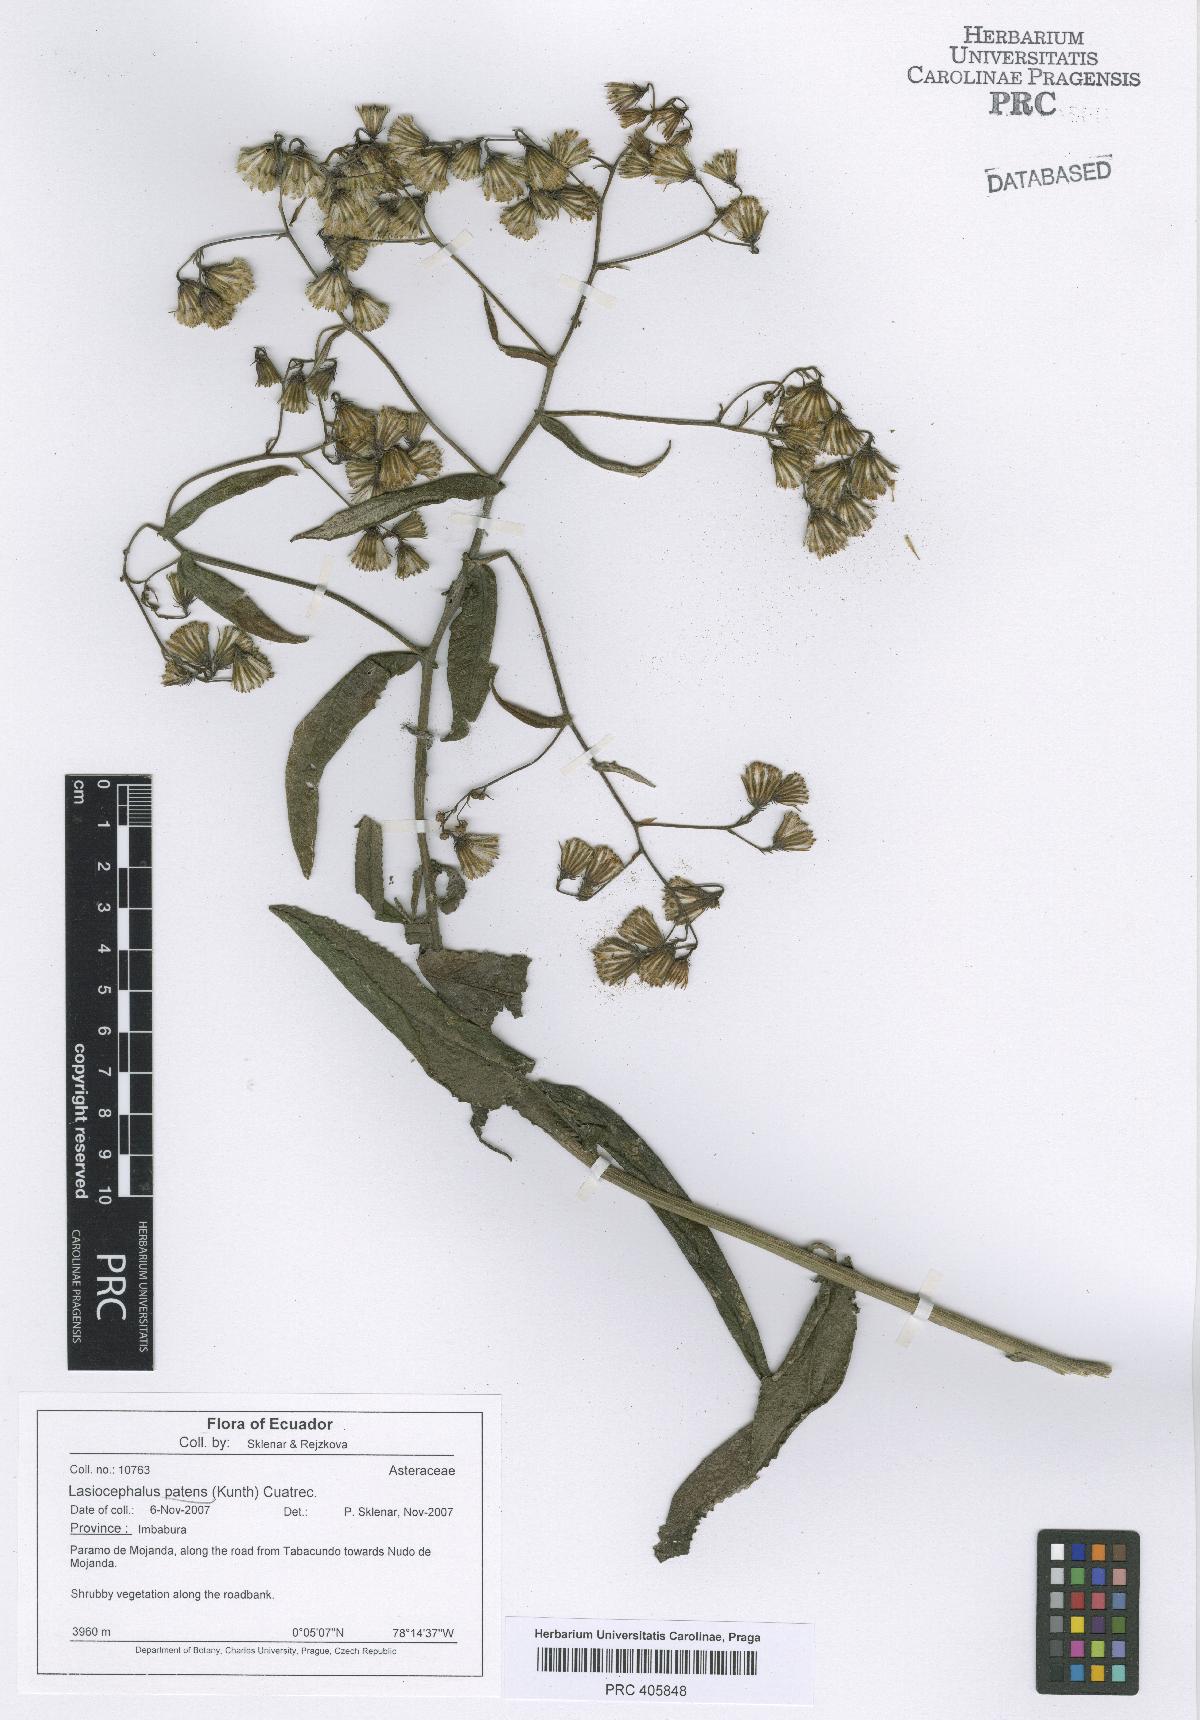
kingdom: Plantae
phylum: Tracheophyta
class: Magnoliopsida
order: Asterales
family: Asteraceae
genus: Aetheolaena
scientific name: Aetheolaena patens
